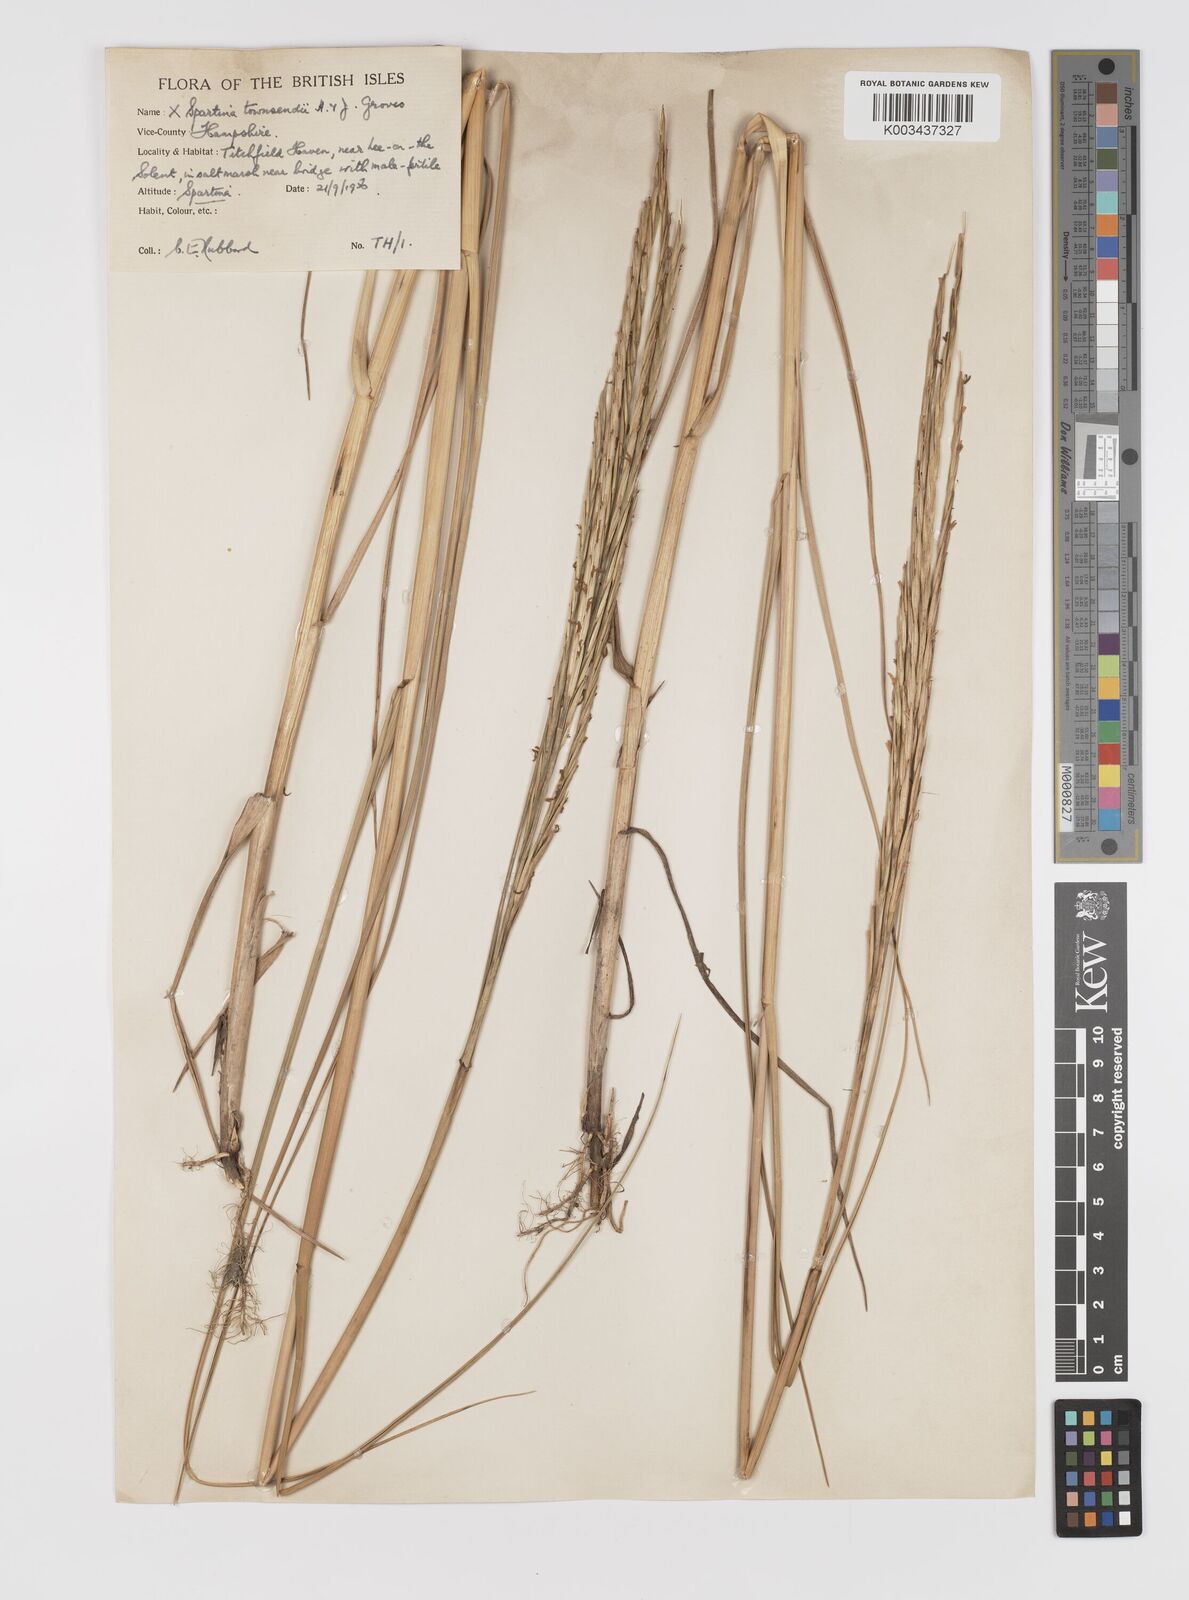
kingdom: Plantae
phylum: Tracheophyta
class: Liliopsida
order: Poales
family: Poaceae
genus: Sporobolus
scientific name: Sporobolus townsendii
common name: Townsend's cordgrass
